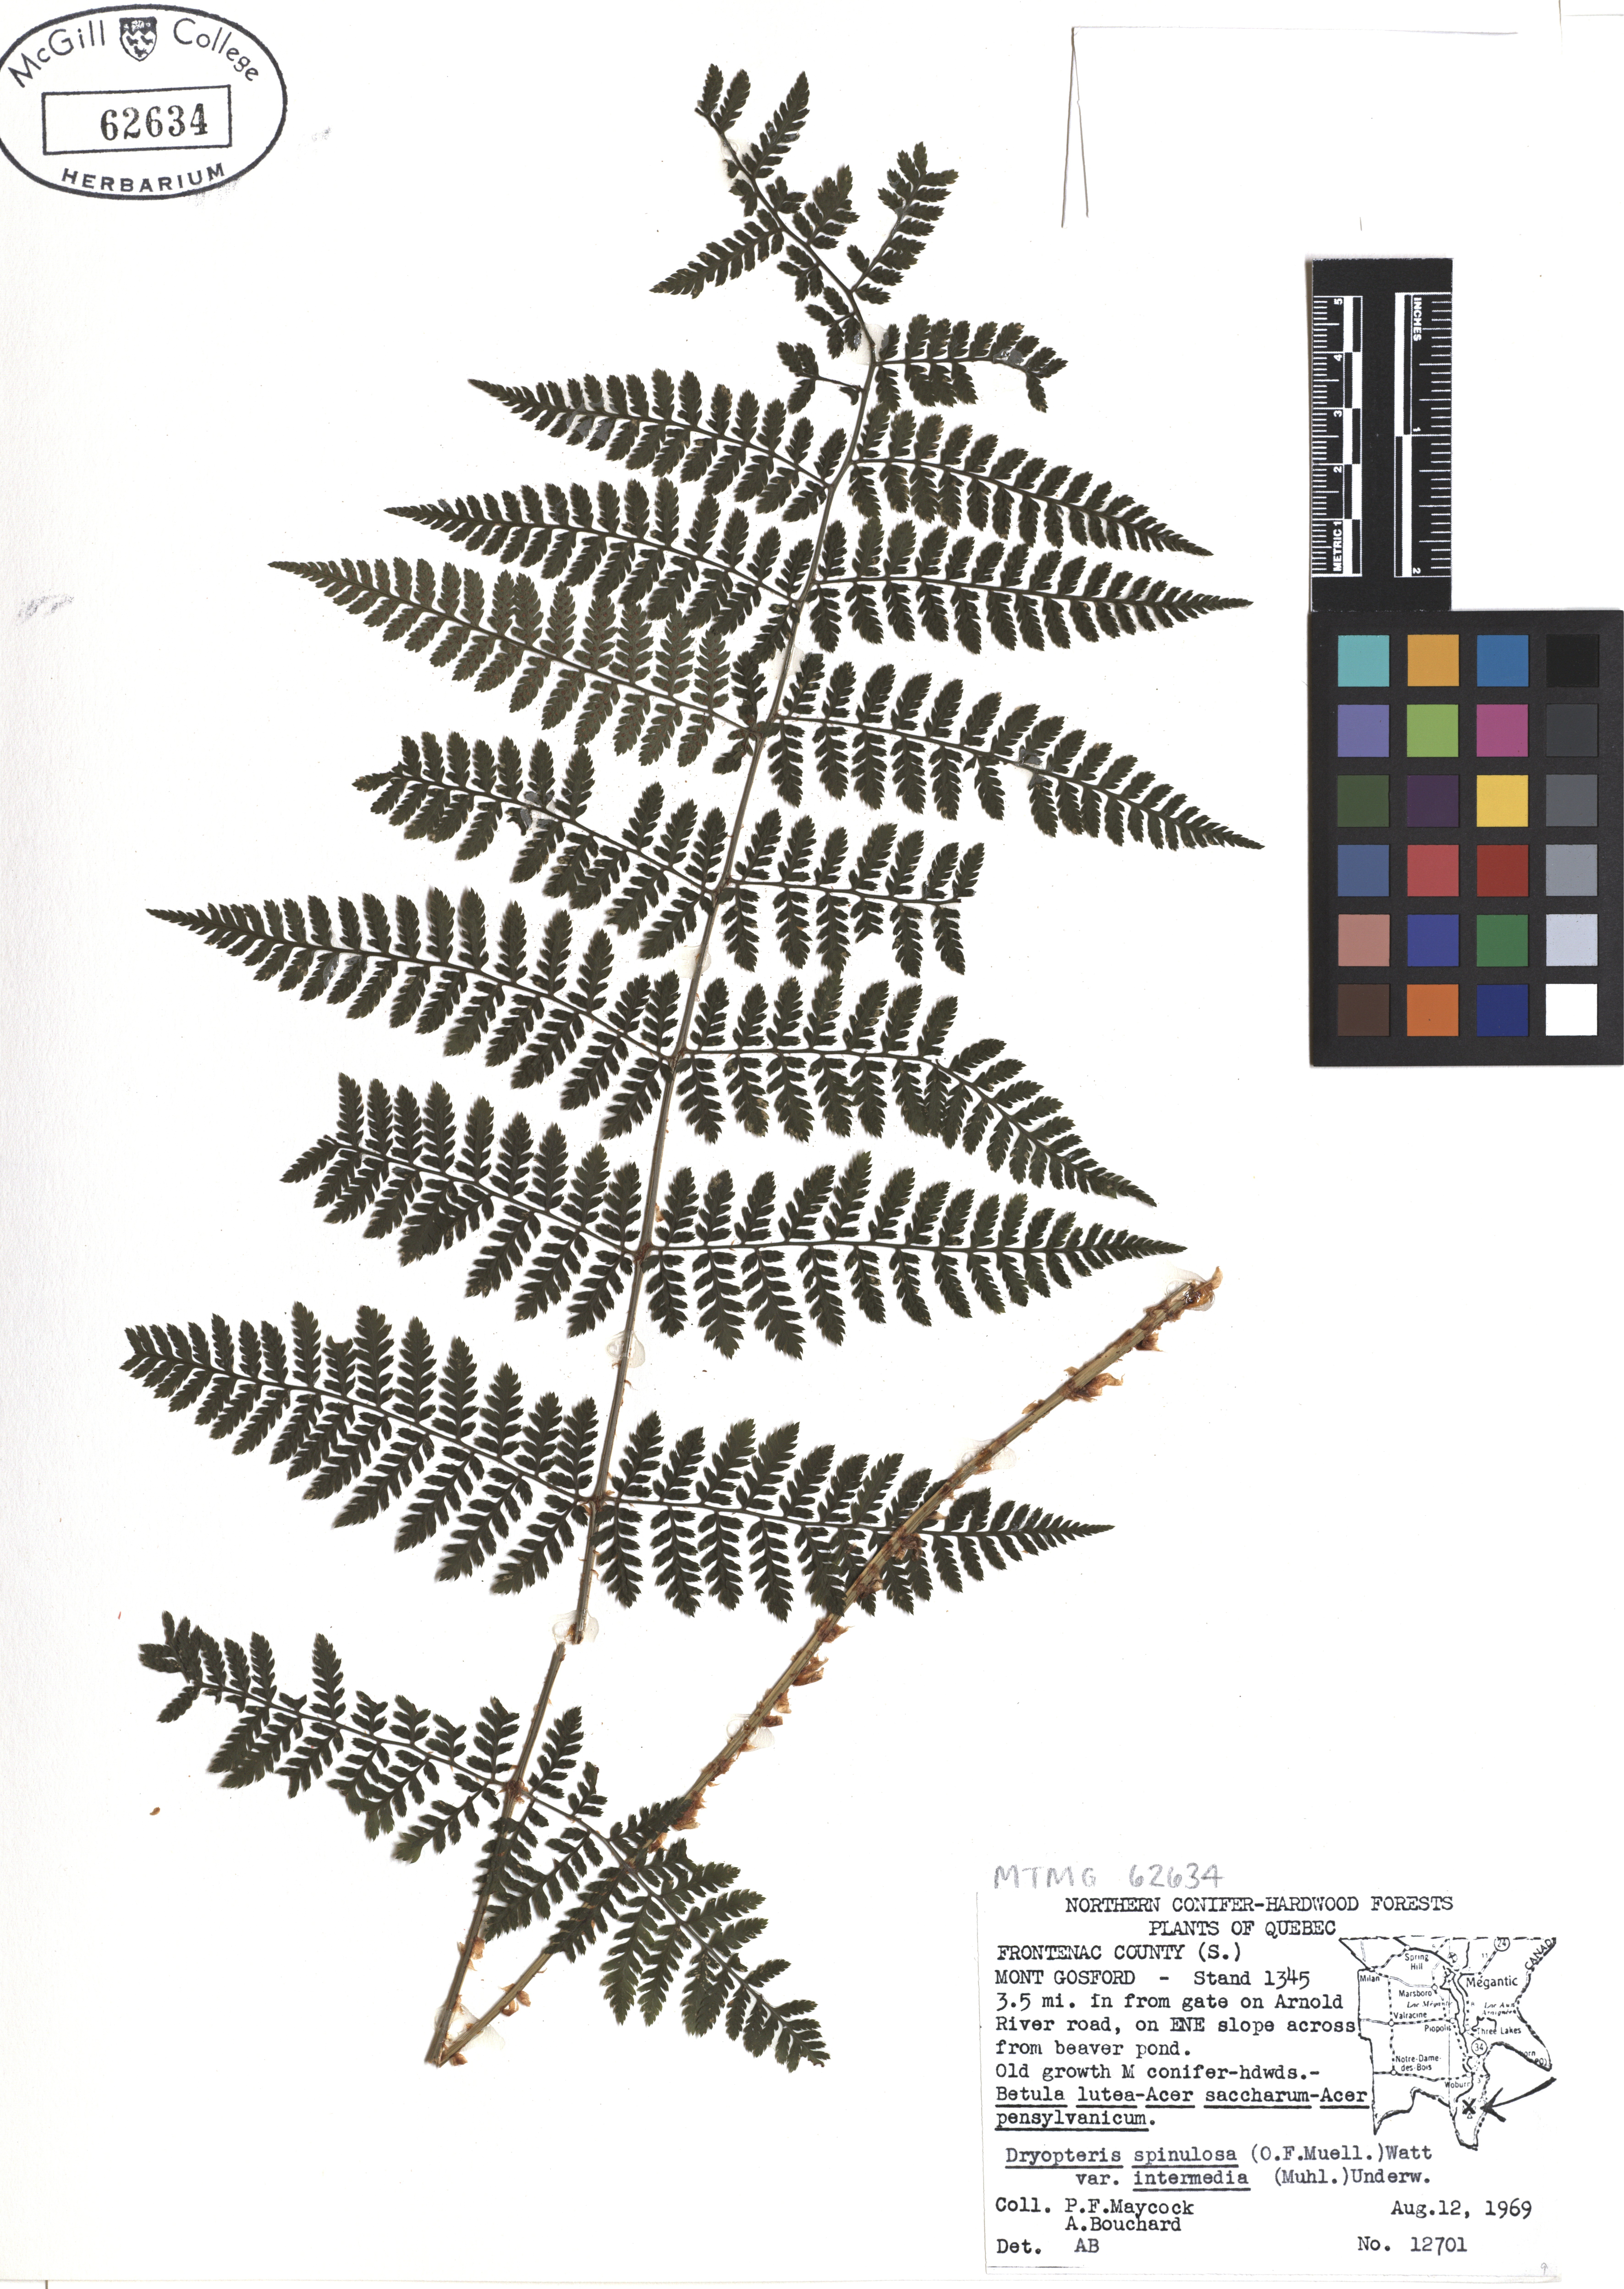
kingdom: Plantae
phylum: Tracheophyta
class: Polypodiopsida
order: Polypodiales
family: Dryopteridaceae
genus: Dryopteris
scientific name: Dryopteris intermedia
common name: Evergreen wood fern
